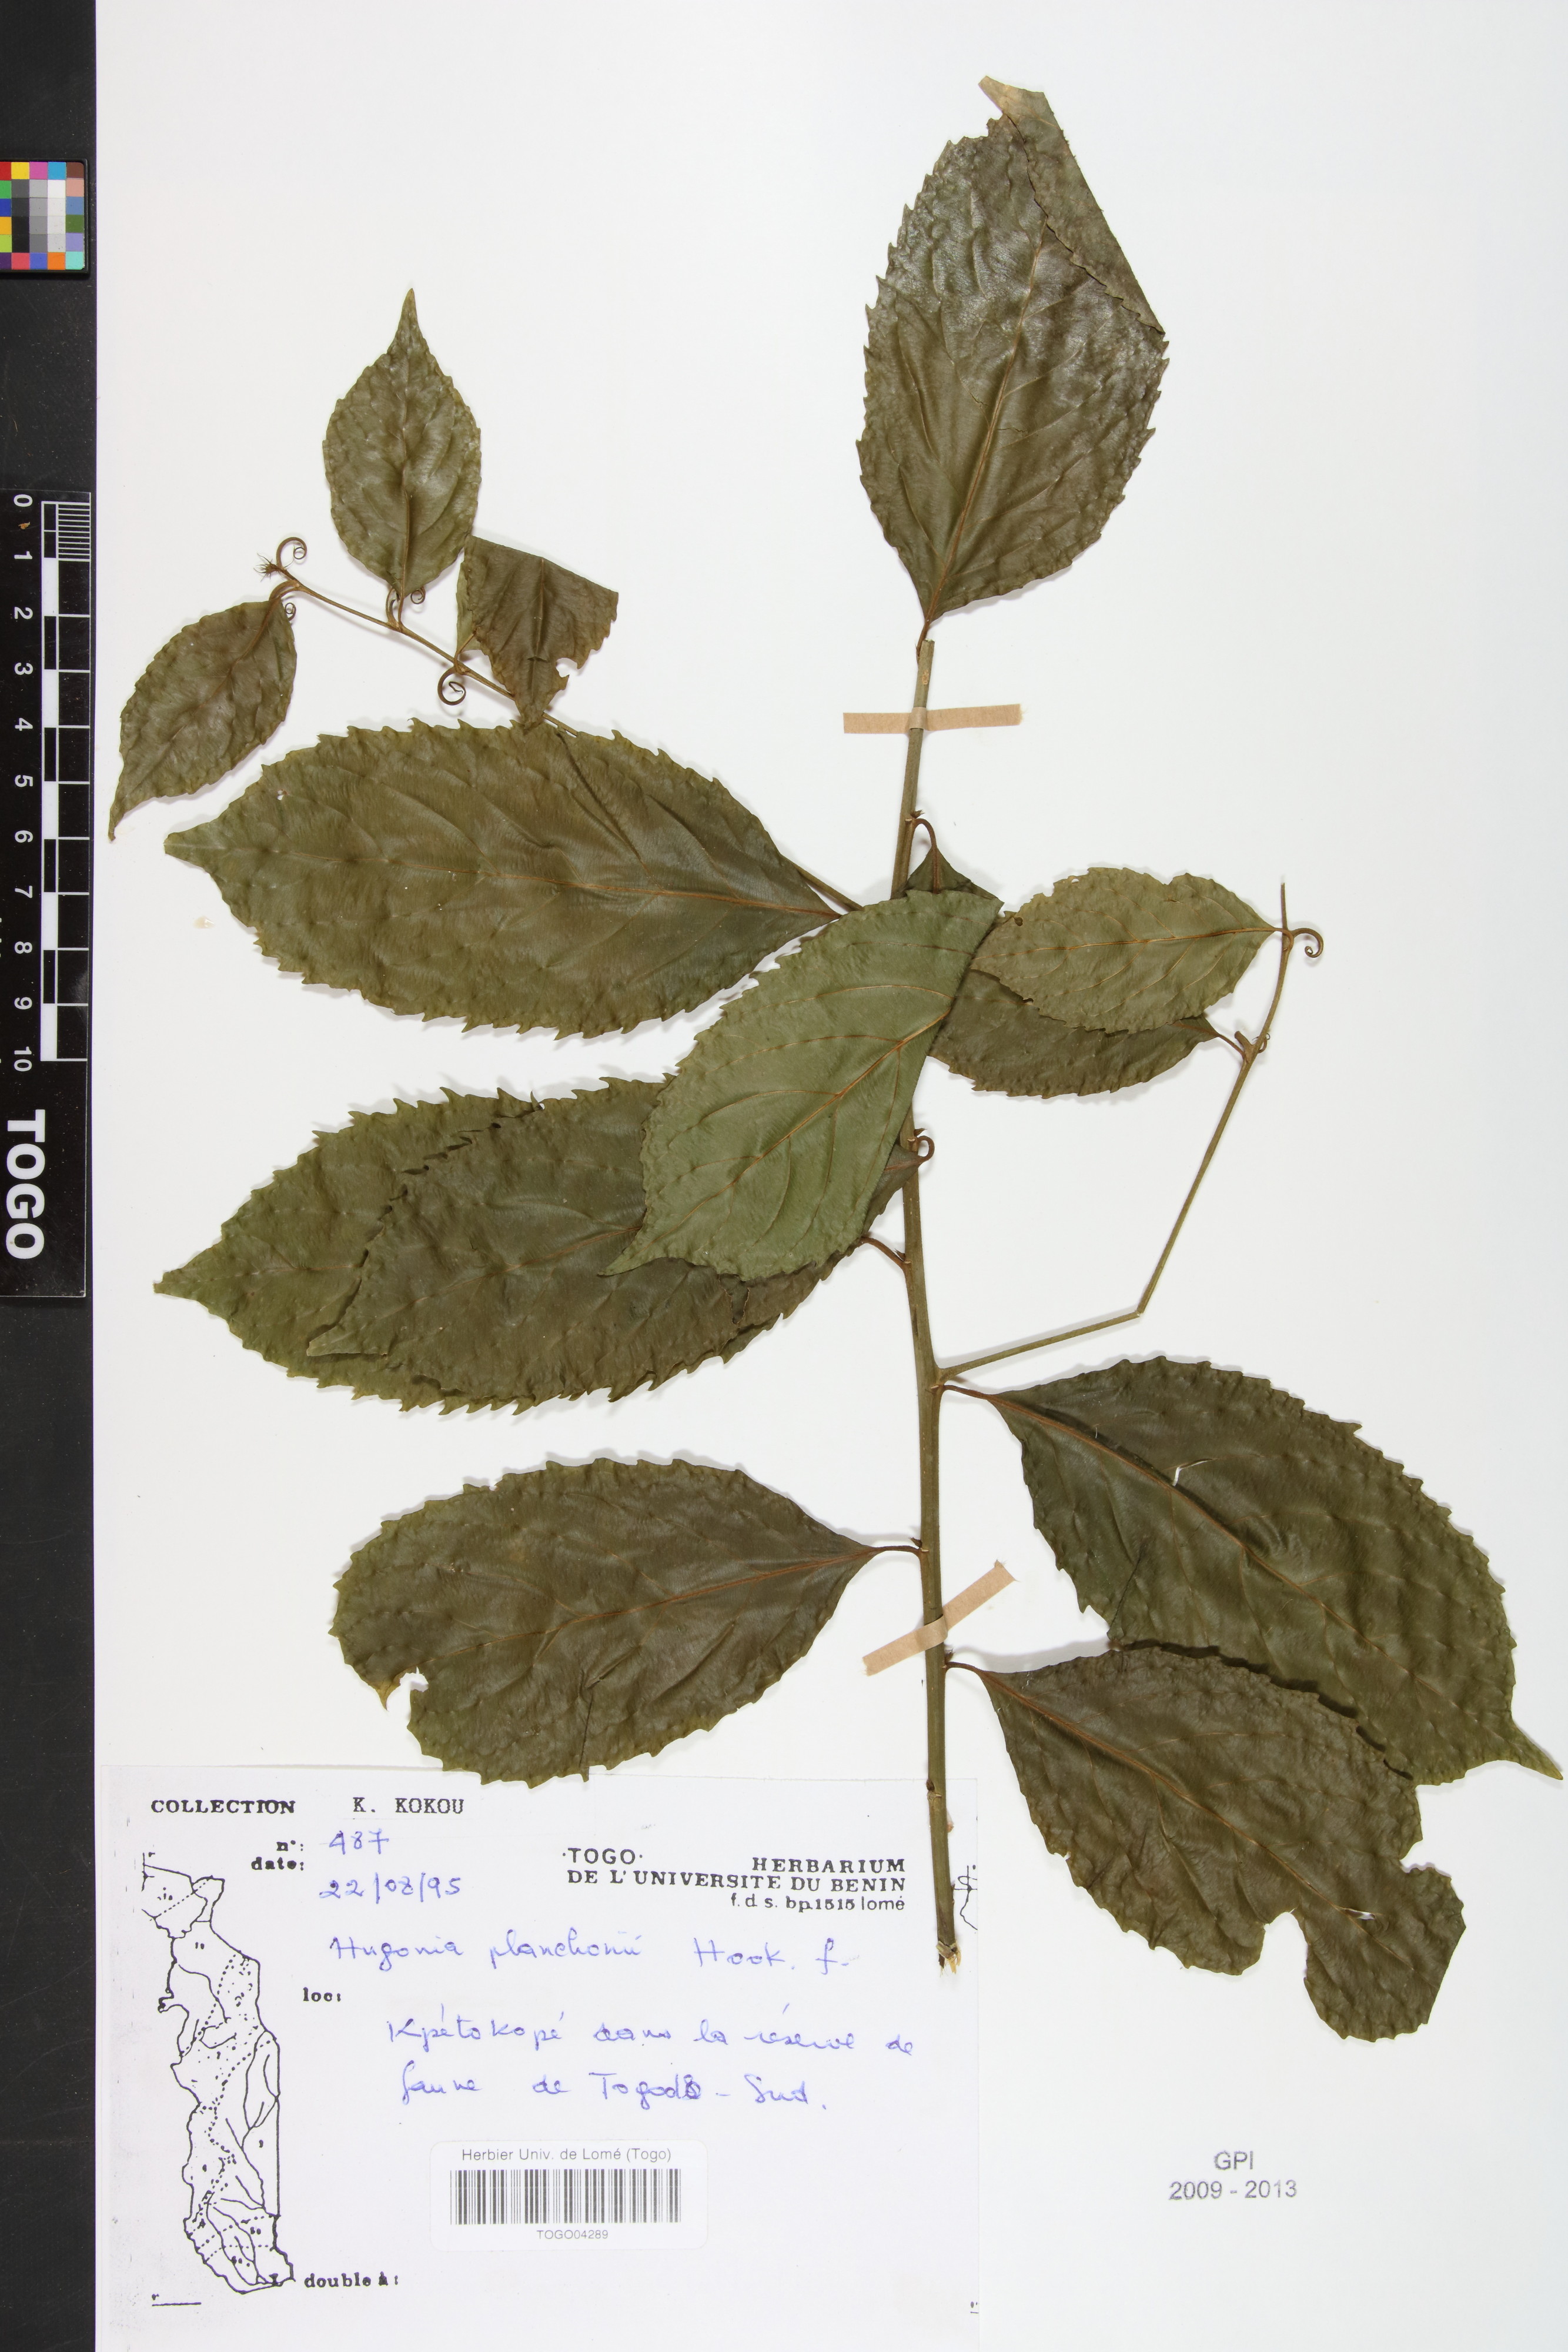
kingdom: Plantae
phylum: Tracheophyta
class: Magnoliopsida
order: Malpighiales
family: Linaceae
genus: Hugonia
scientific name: Hugonia planchonii
